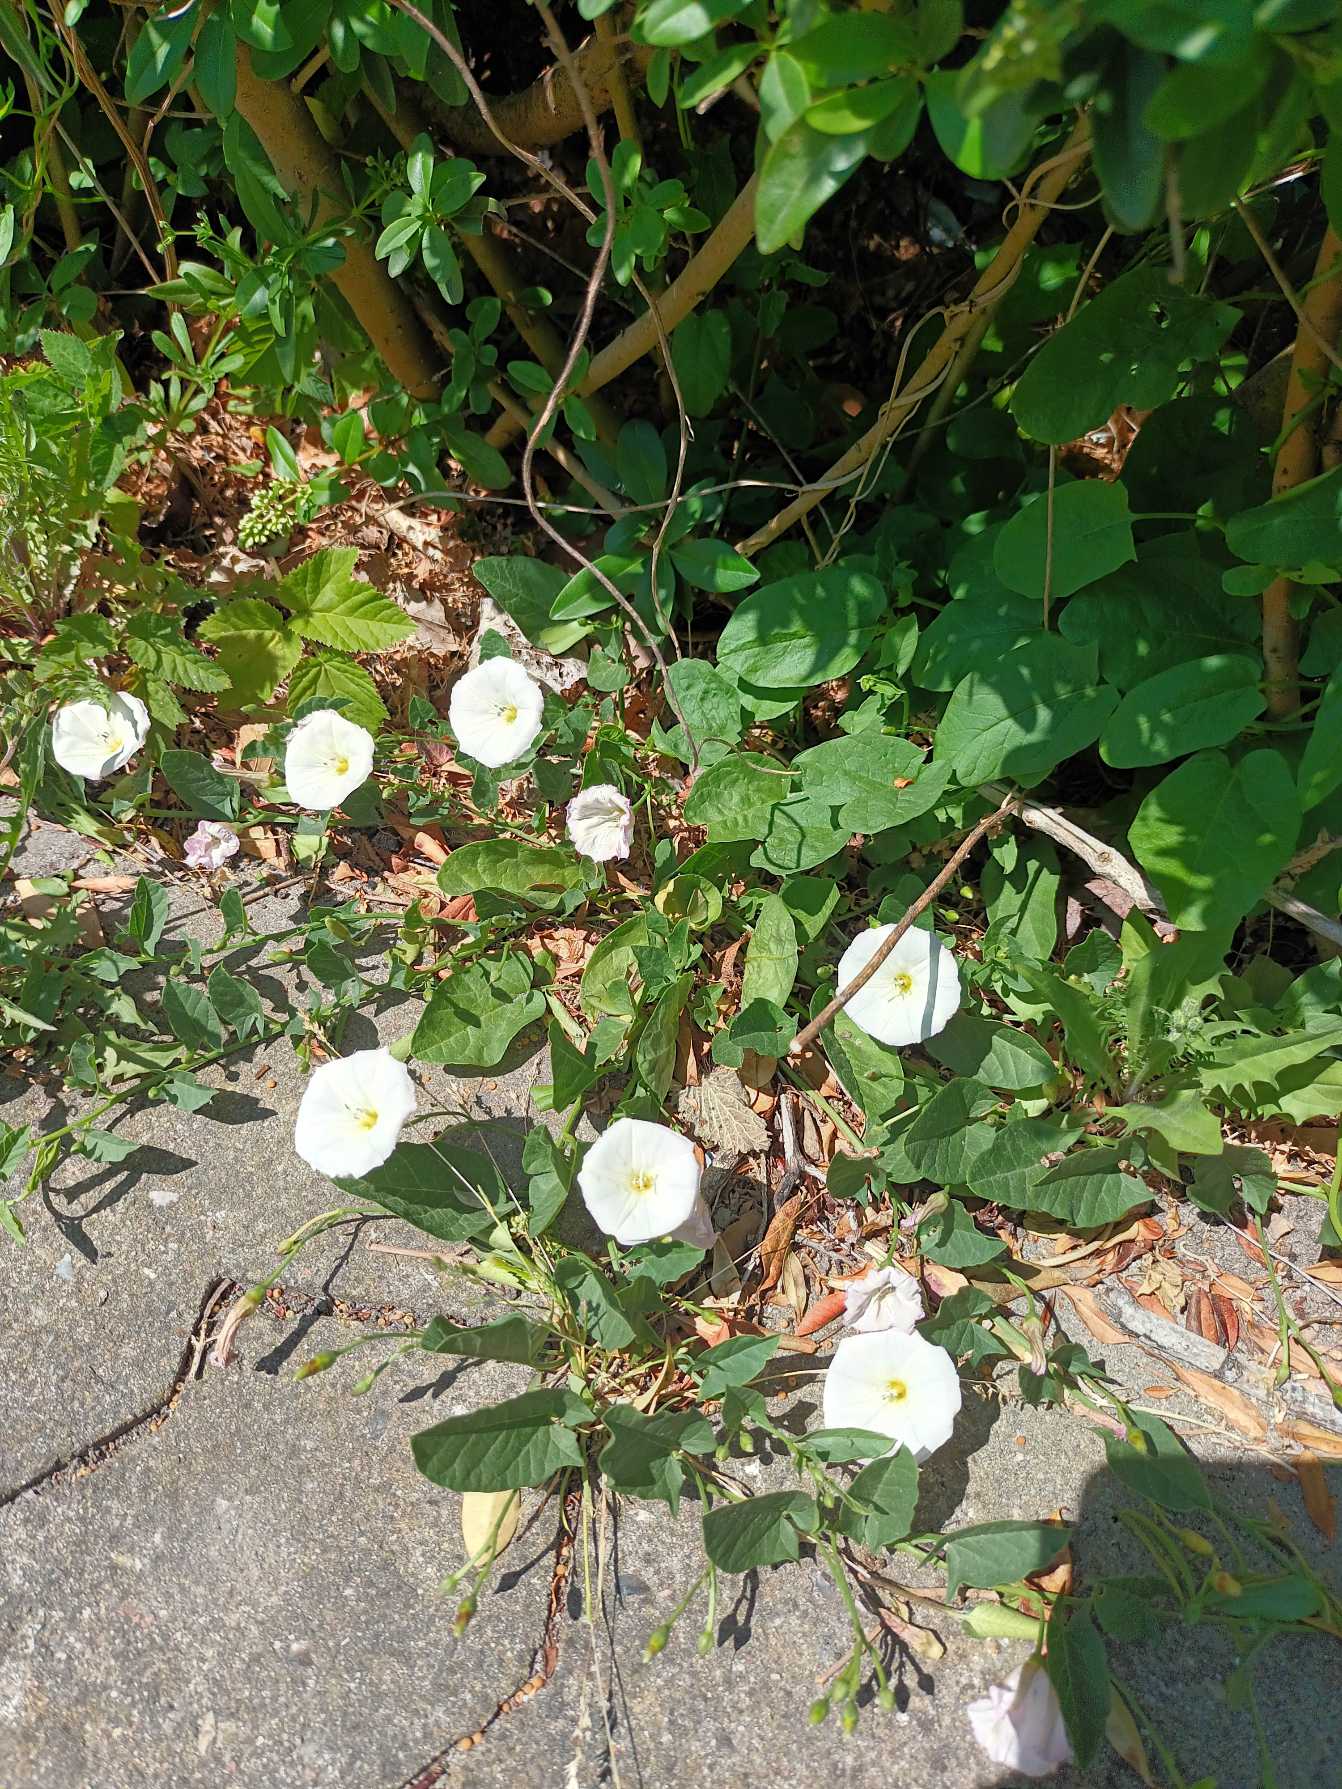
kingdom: Plantae
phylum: Tracheophyta
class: Magnoliopsida
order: Solanales
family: Convolvulaceae
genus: Convolvulus
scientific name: Convolvulus arvensis
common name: Ager-snerle
